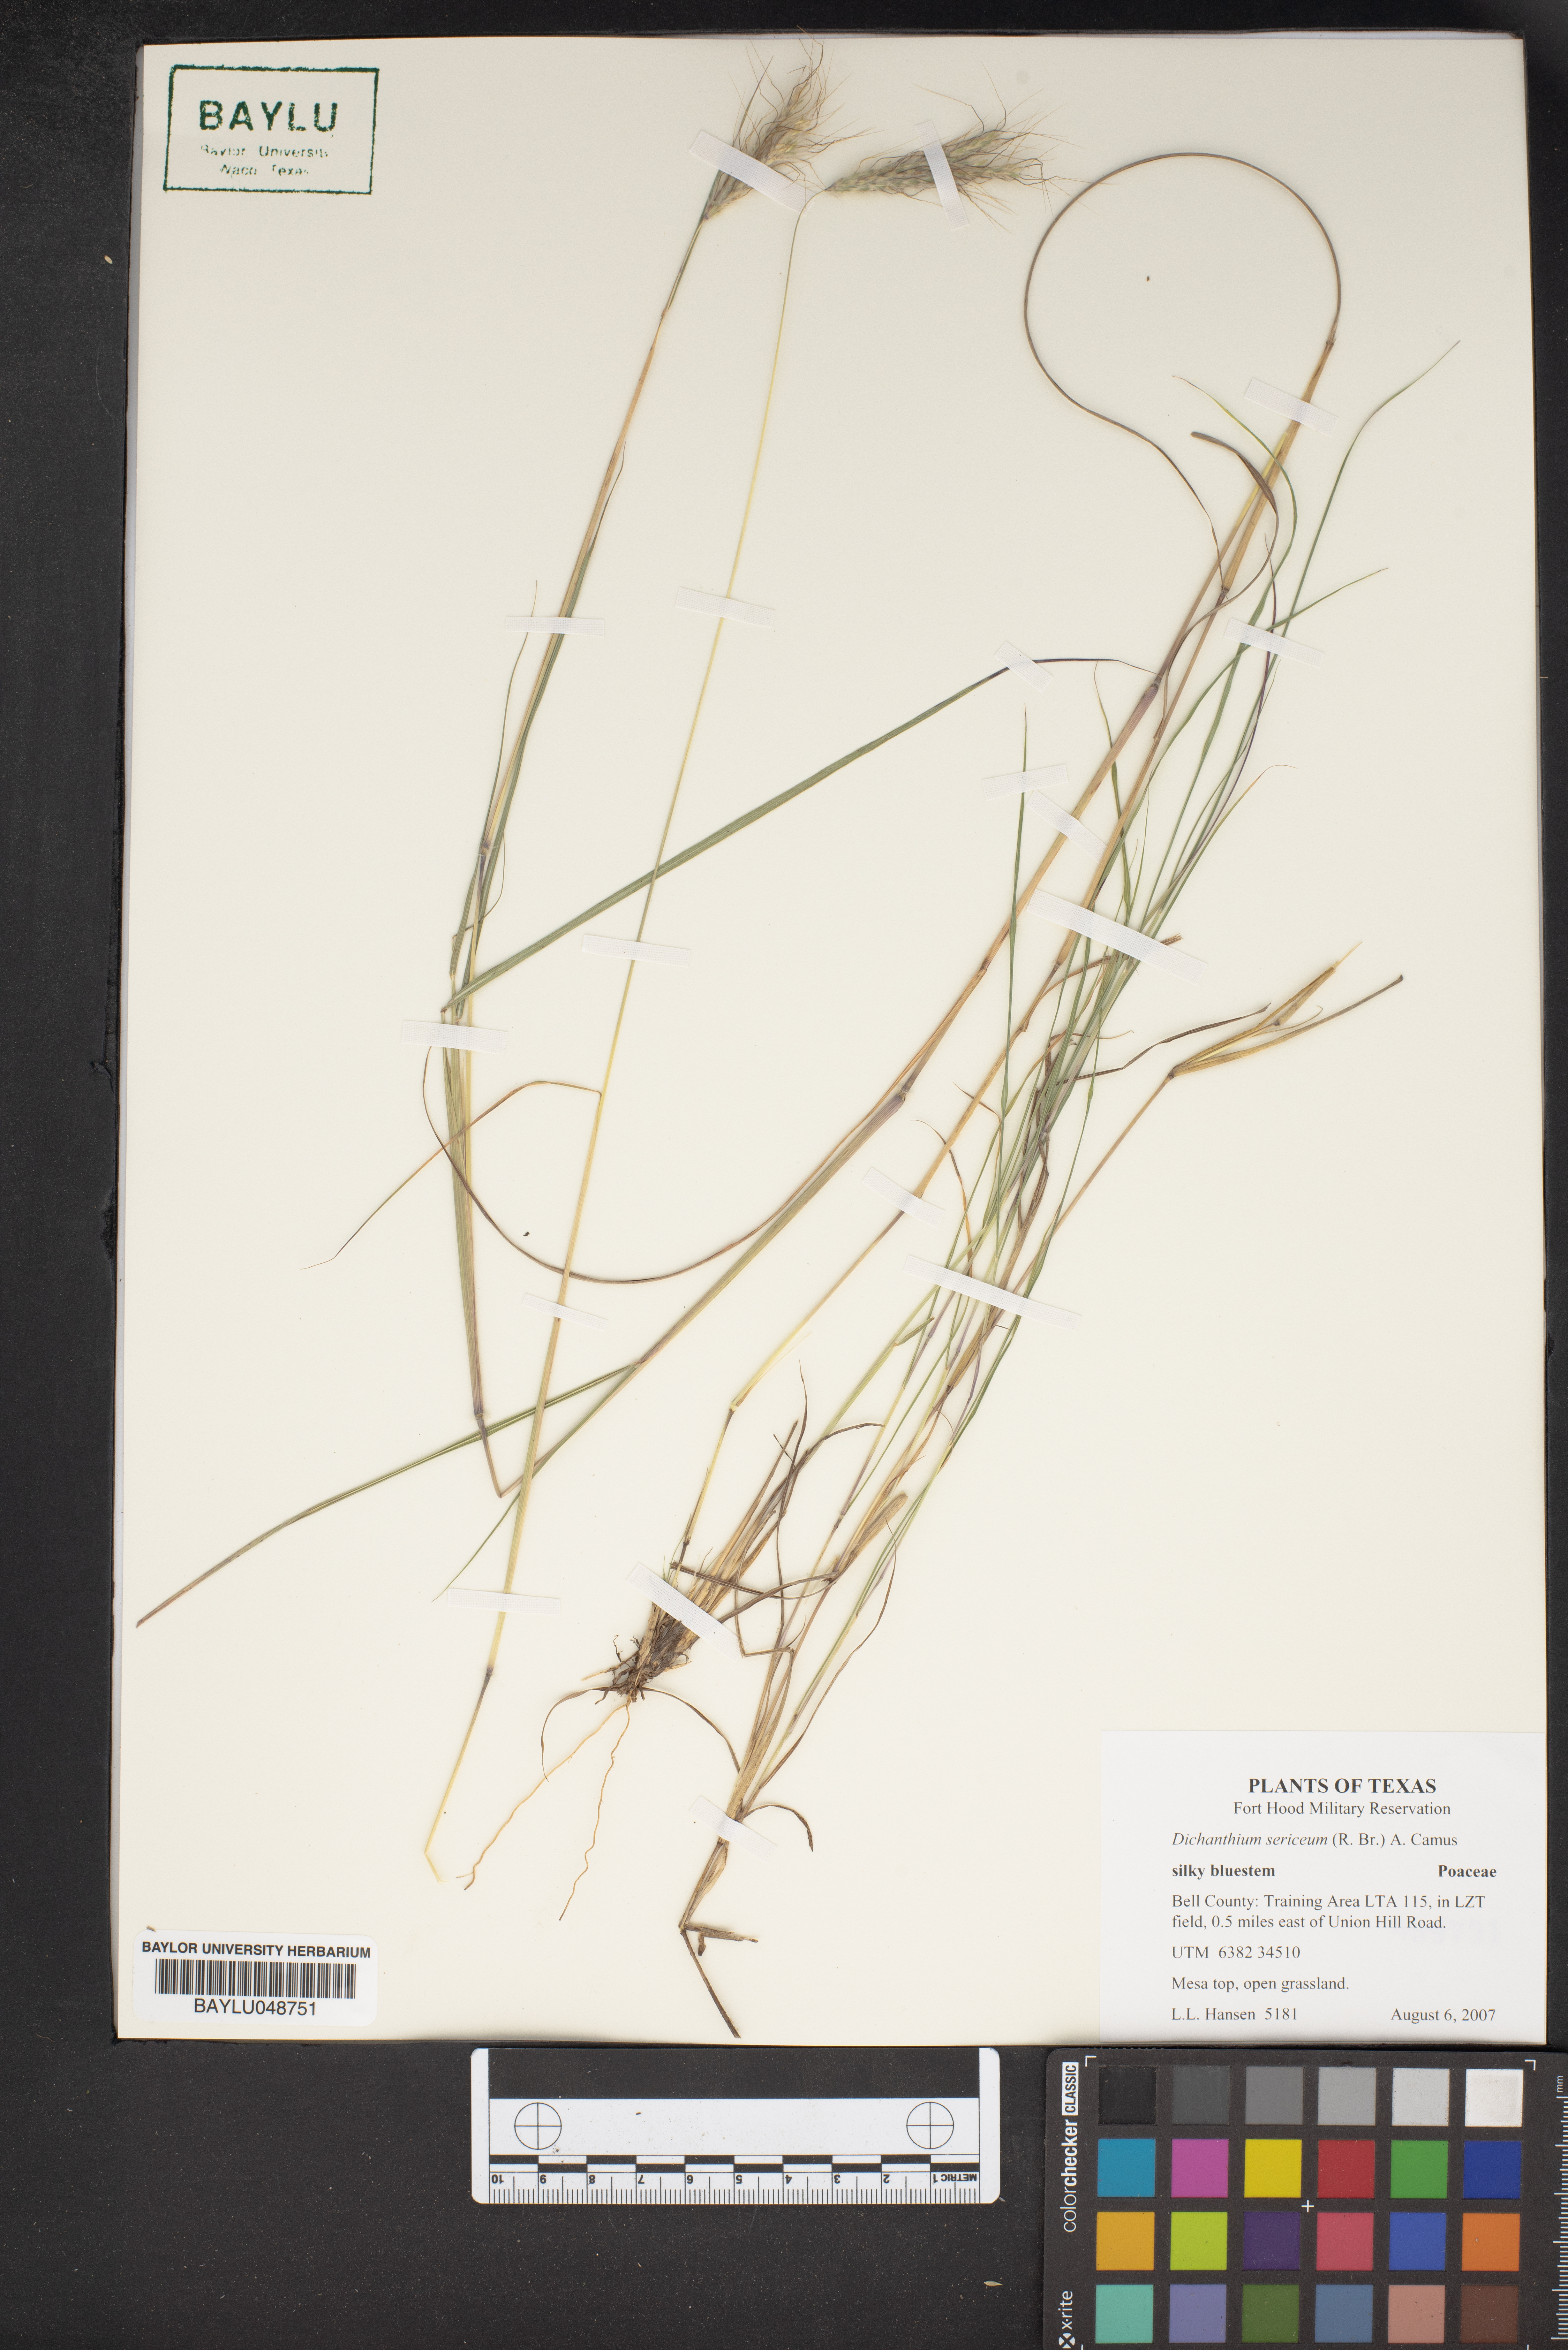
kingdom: Plantae
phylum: Tracheophyta
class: Liliopsida
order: Poales
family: Poaceae
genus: Dichanthium
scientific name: Dichanthium sericeum
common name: Silky bluestem
